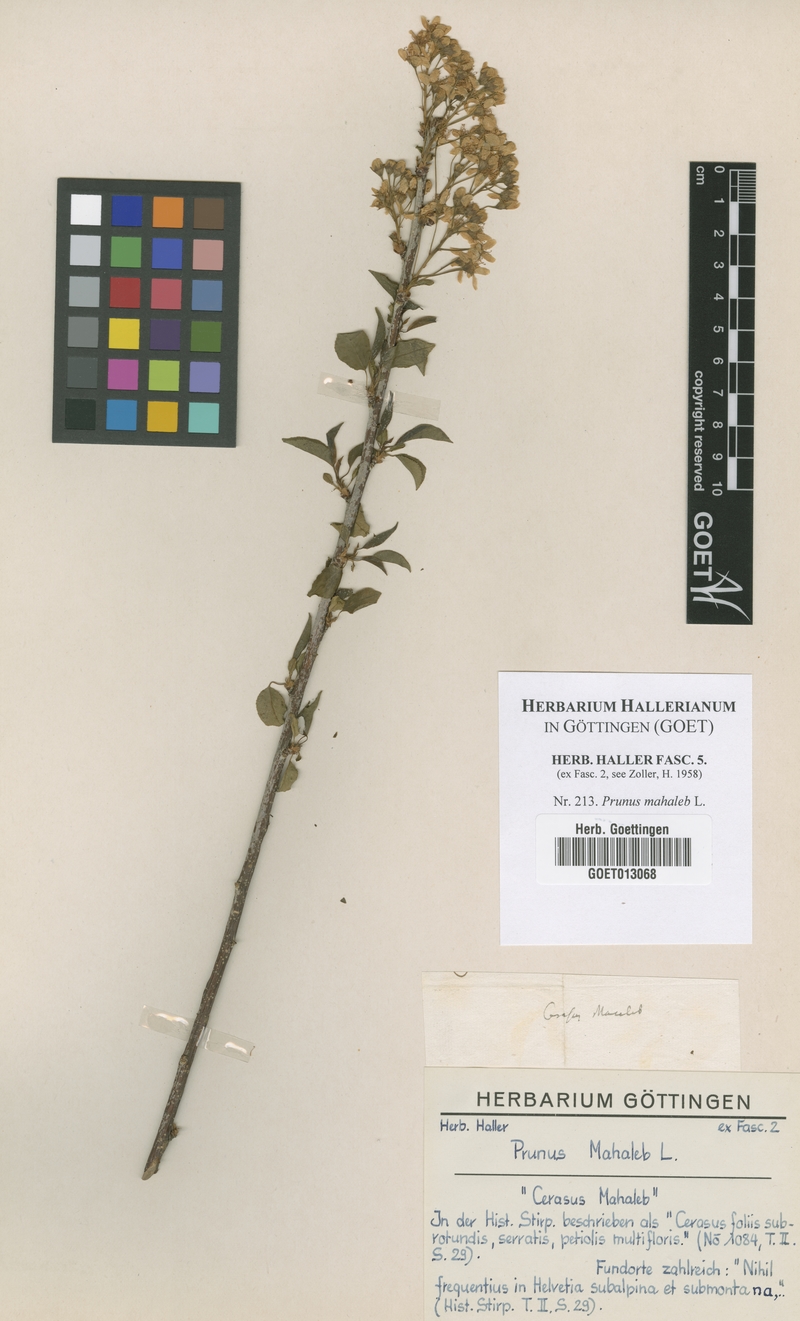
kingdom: Plantae
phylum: Tracheophyta
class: Magnoliopsida
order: Rosales
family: Rosaceae
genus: Prunus
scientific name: Prunus mahaleb
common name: Mahaleb cherry
